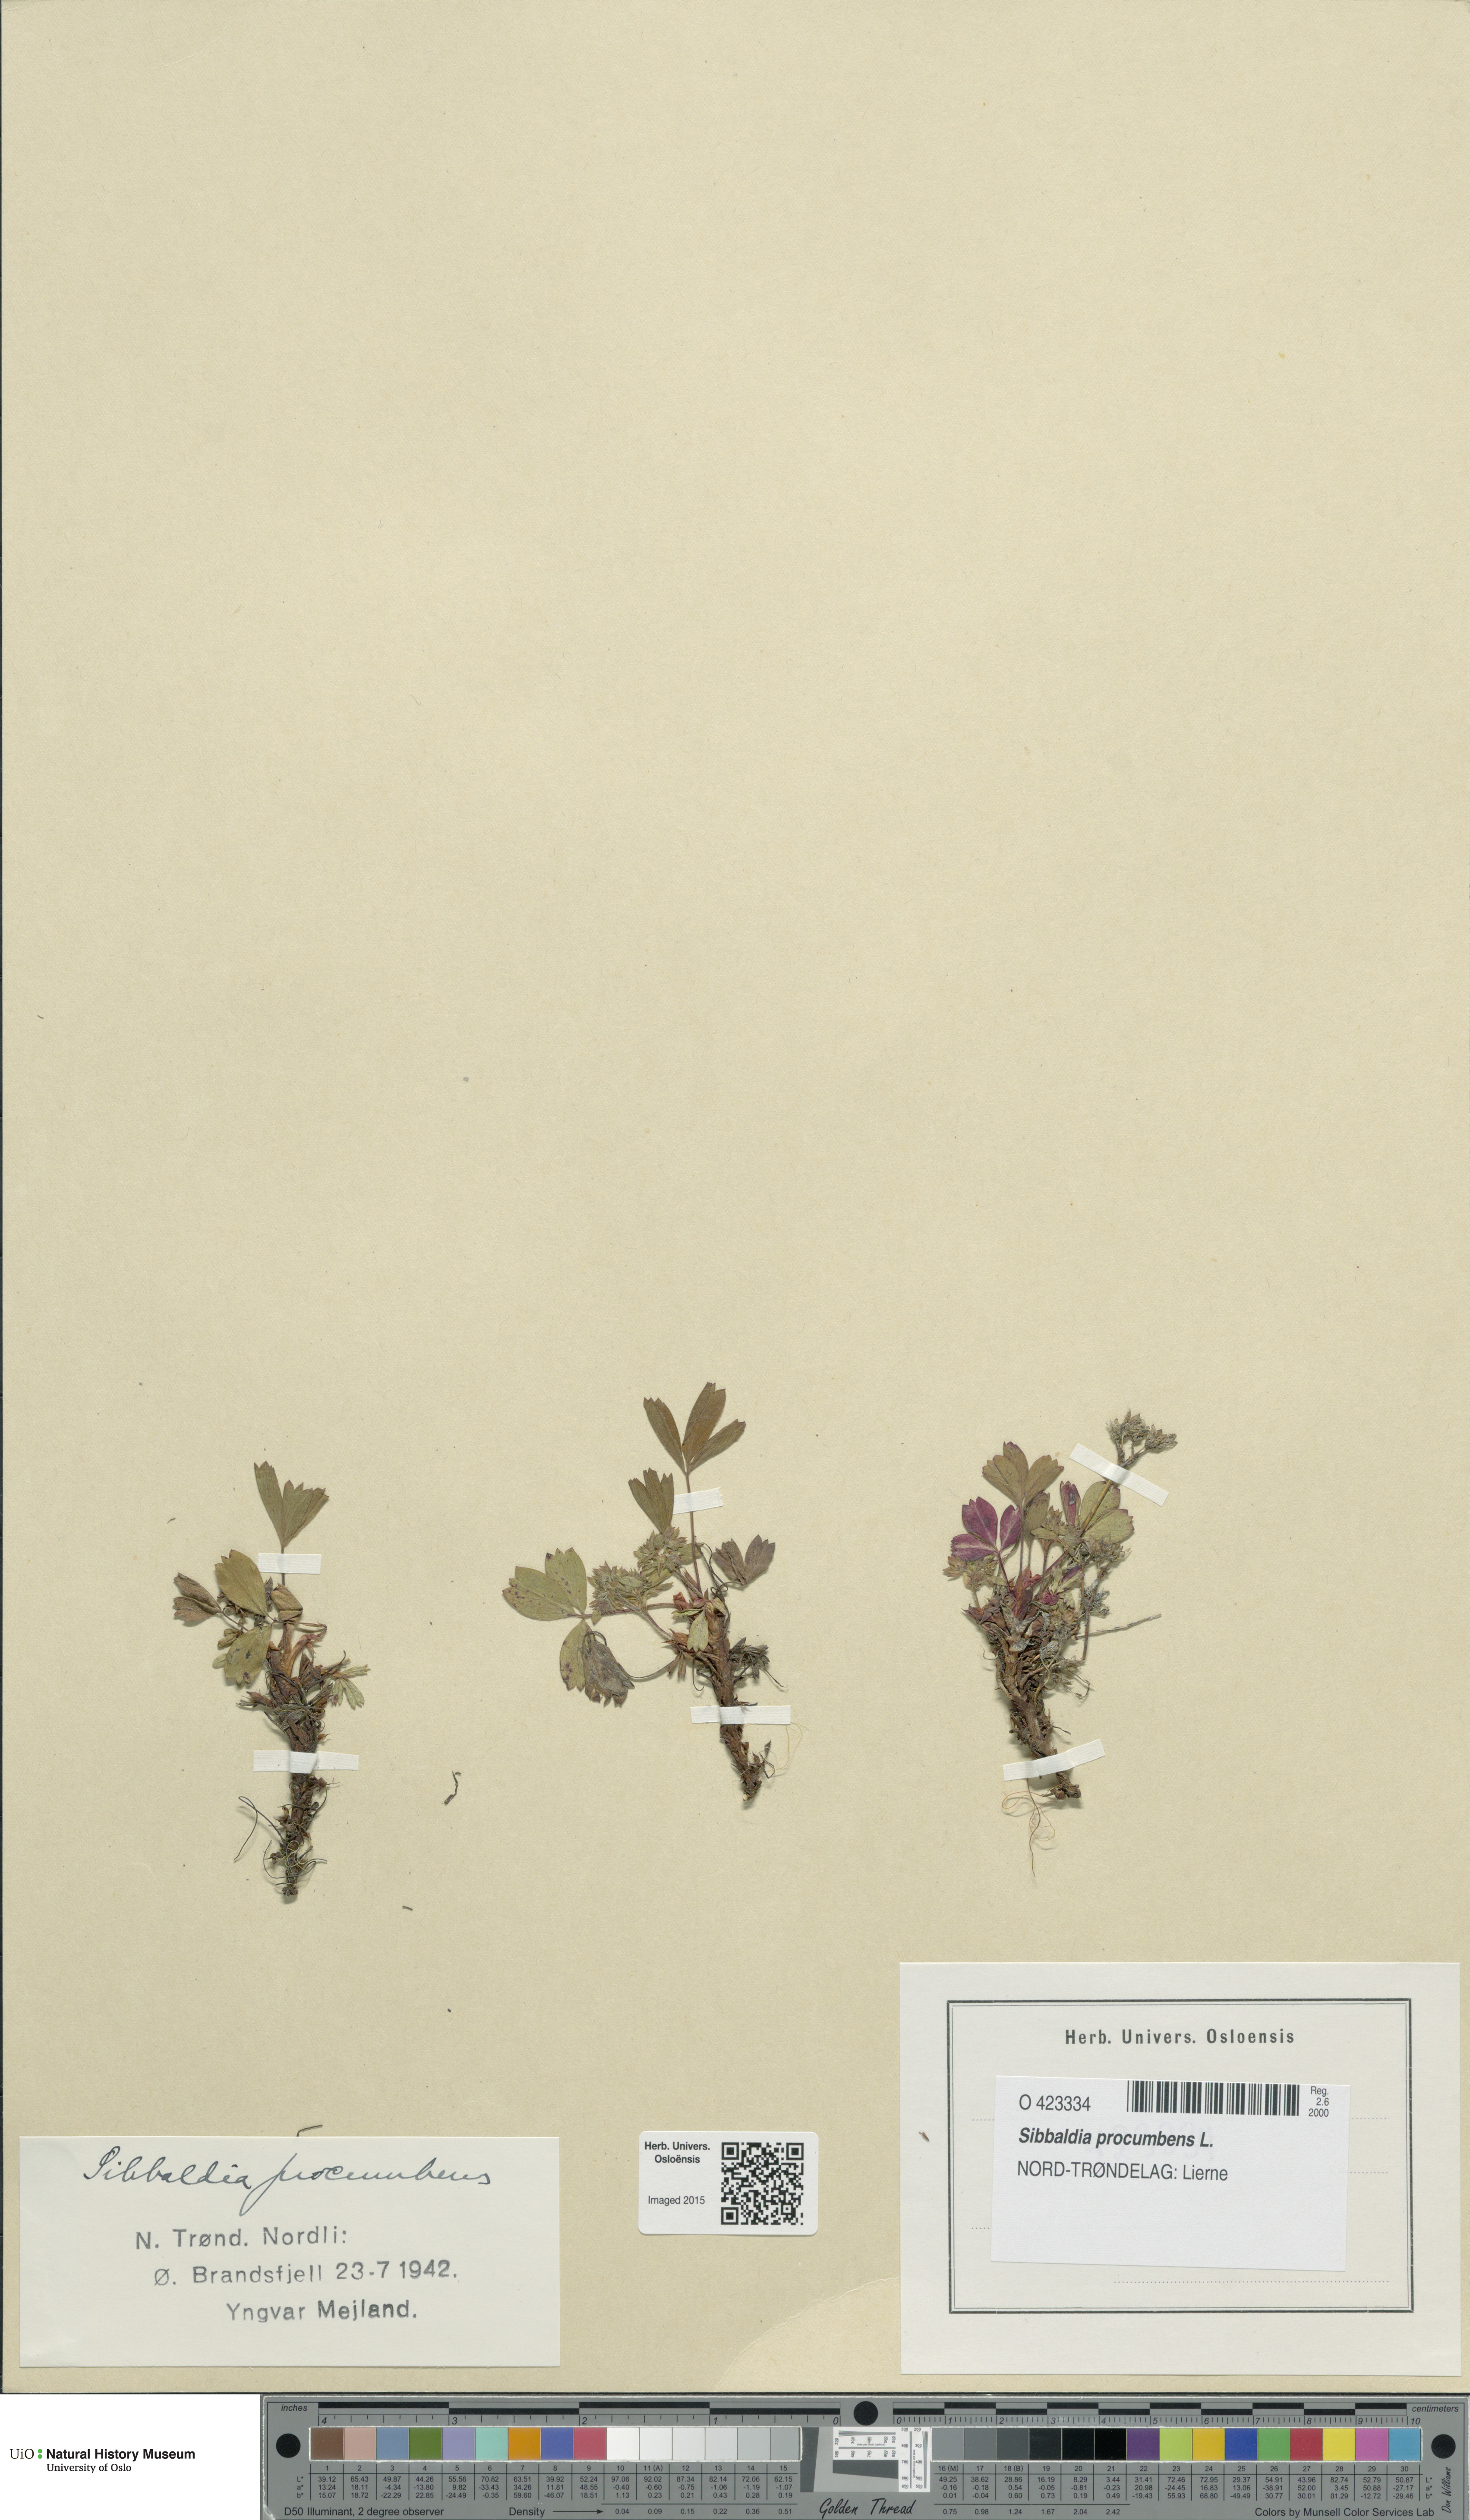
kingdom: Plantae
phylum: Tracheophyta
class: Magnoliopsida
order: Rosales
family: Rosaceae
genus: Sibbaldia
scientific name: Sibbaldia procumbens
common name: Creeping sibbaldia
